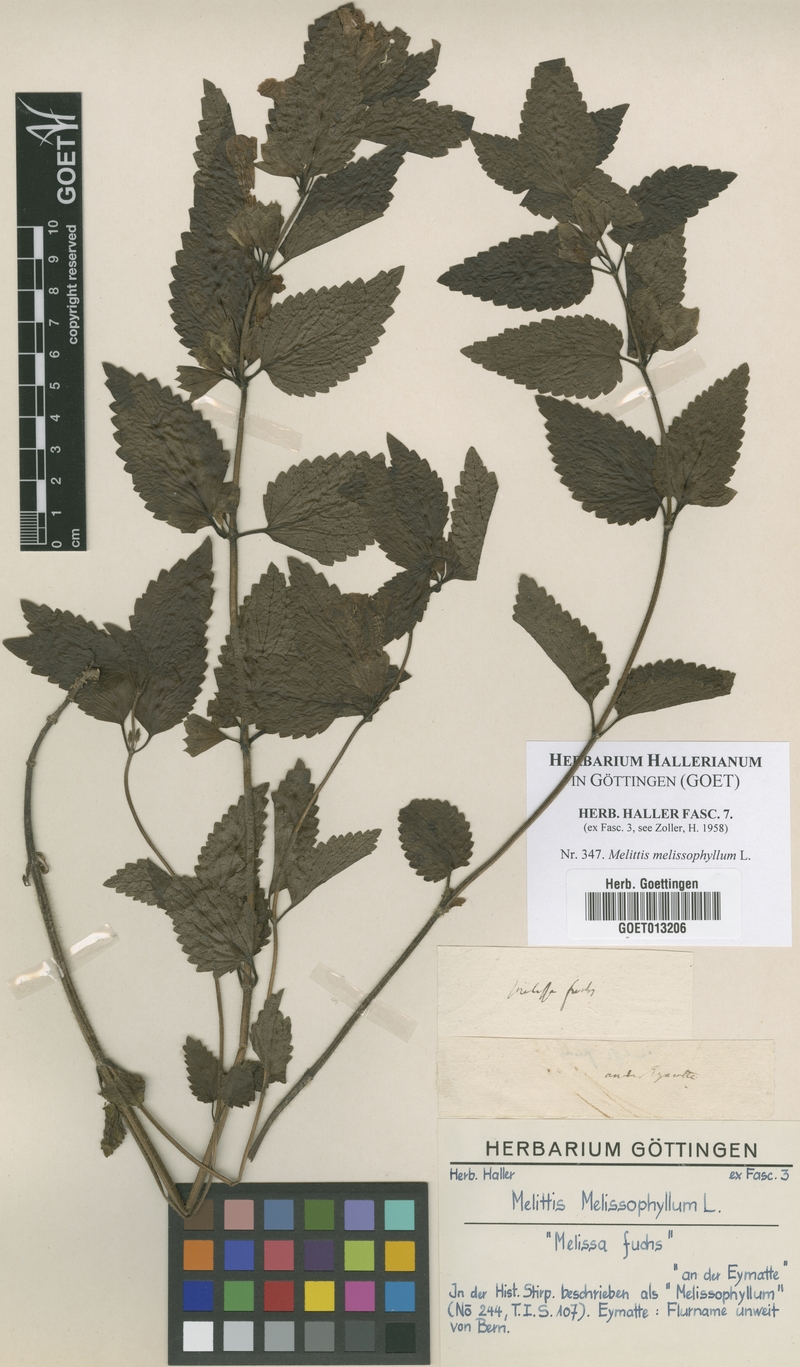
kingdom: Plantae
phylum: Tracheophyta
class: Magnoliopsida
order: Lamiales
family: Lamiaceae
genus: Melittis
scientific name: Melittis melissophyllum
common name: Bastard balm
